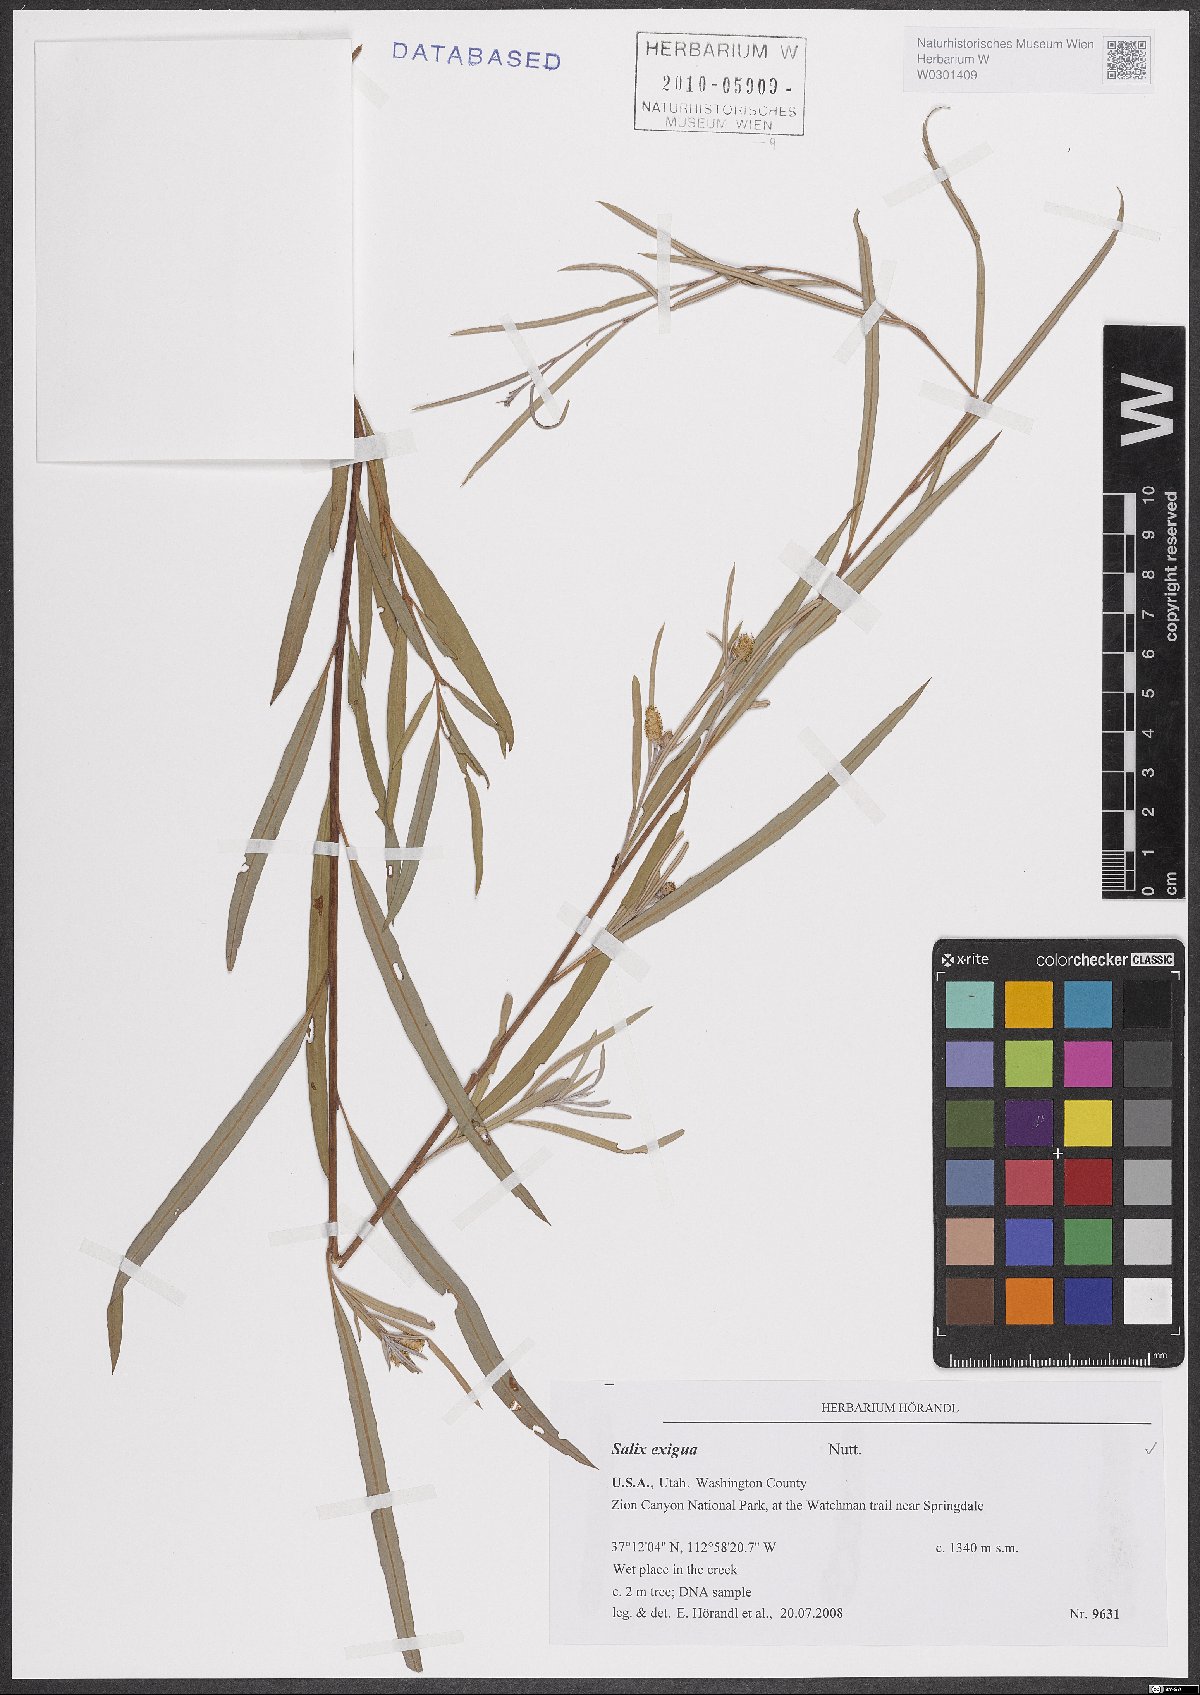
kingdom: Plantae
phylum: Tracheophyta
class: Magnoliopsida
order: Malpighiales
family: Salicaceae
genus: Salix
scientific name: Salix exigua
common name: Coyote willow
